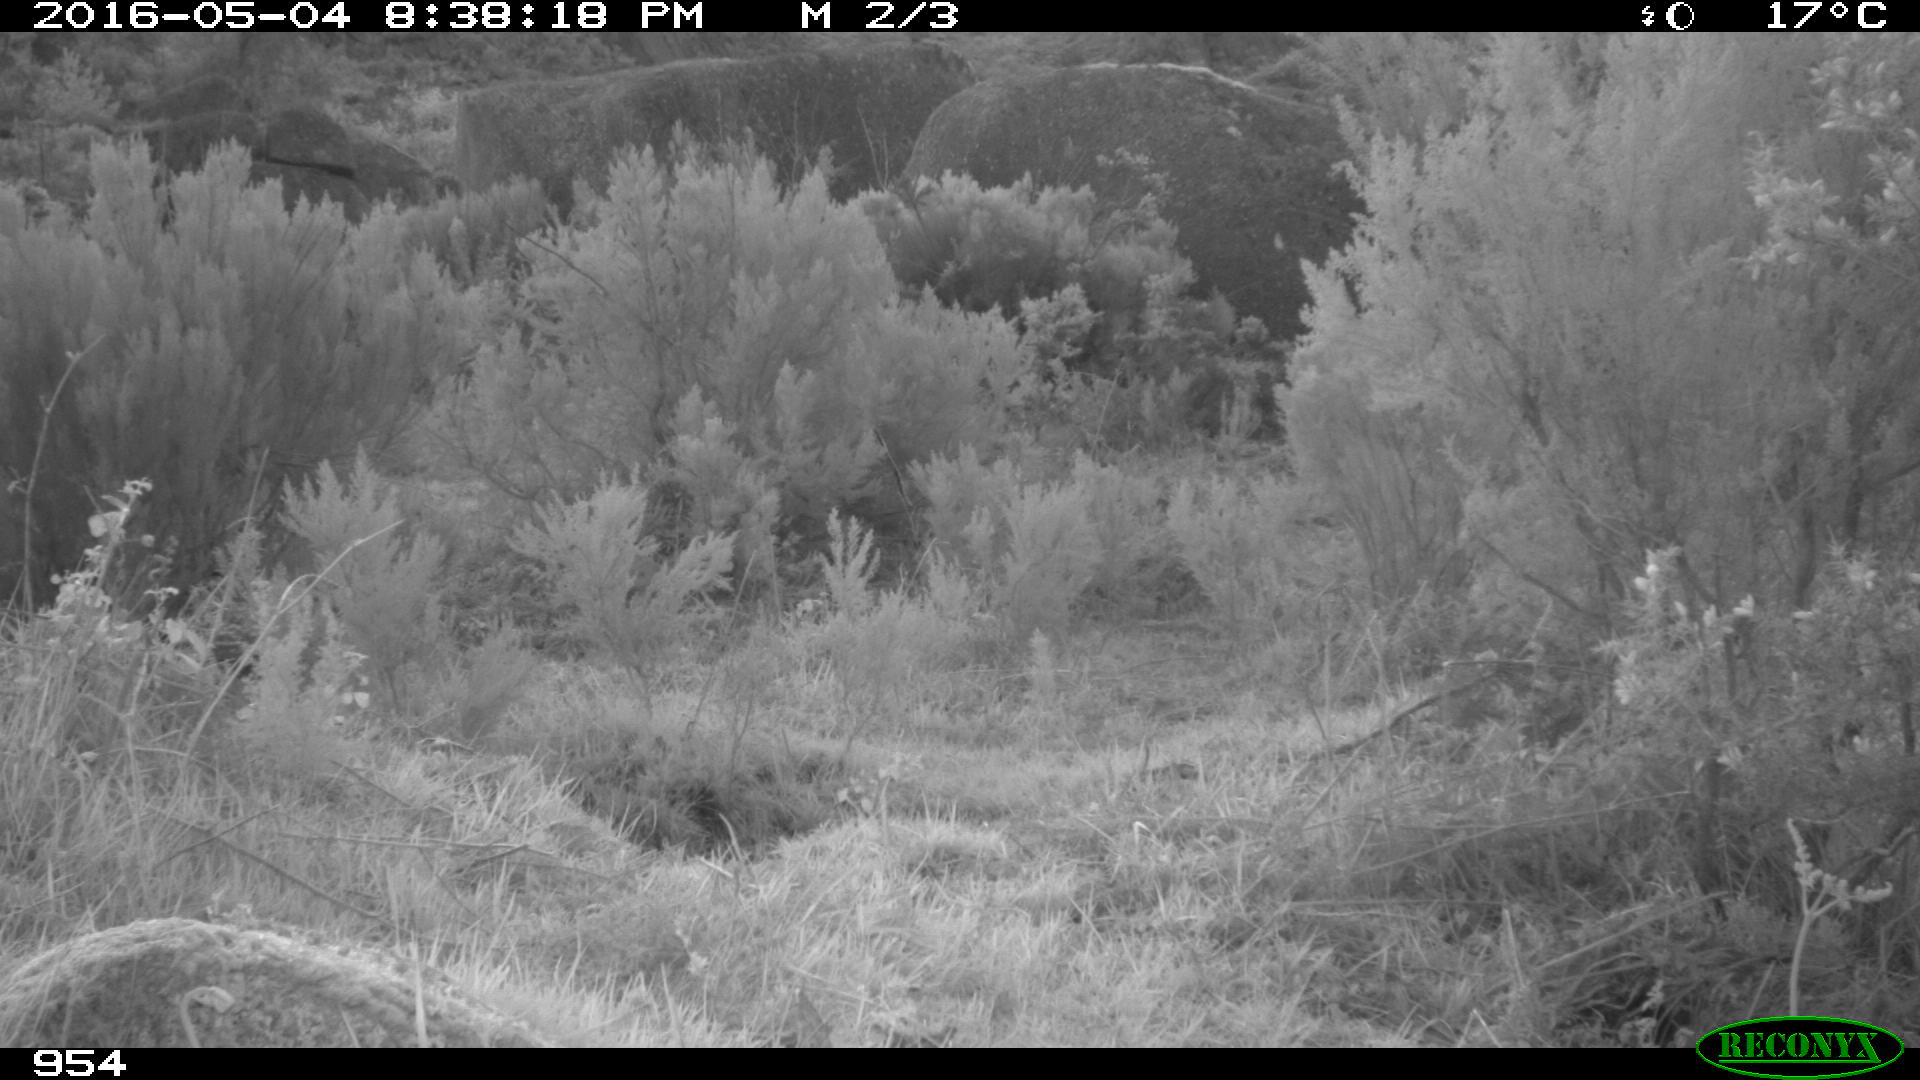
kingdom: Animalia
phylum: Chordata
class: Mammalia
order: Artiodactyla
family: Suidae
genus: Sus
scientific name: Sus scrofa
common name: Wild boar
